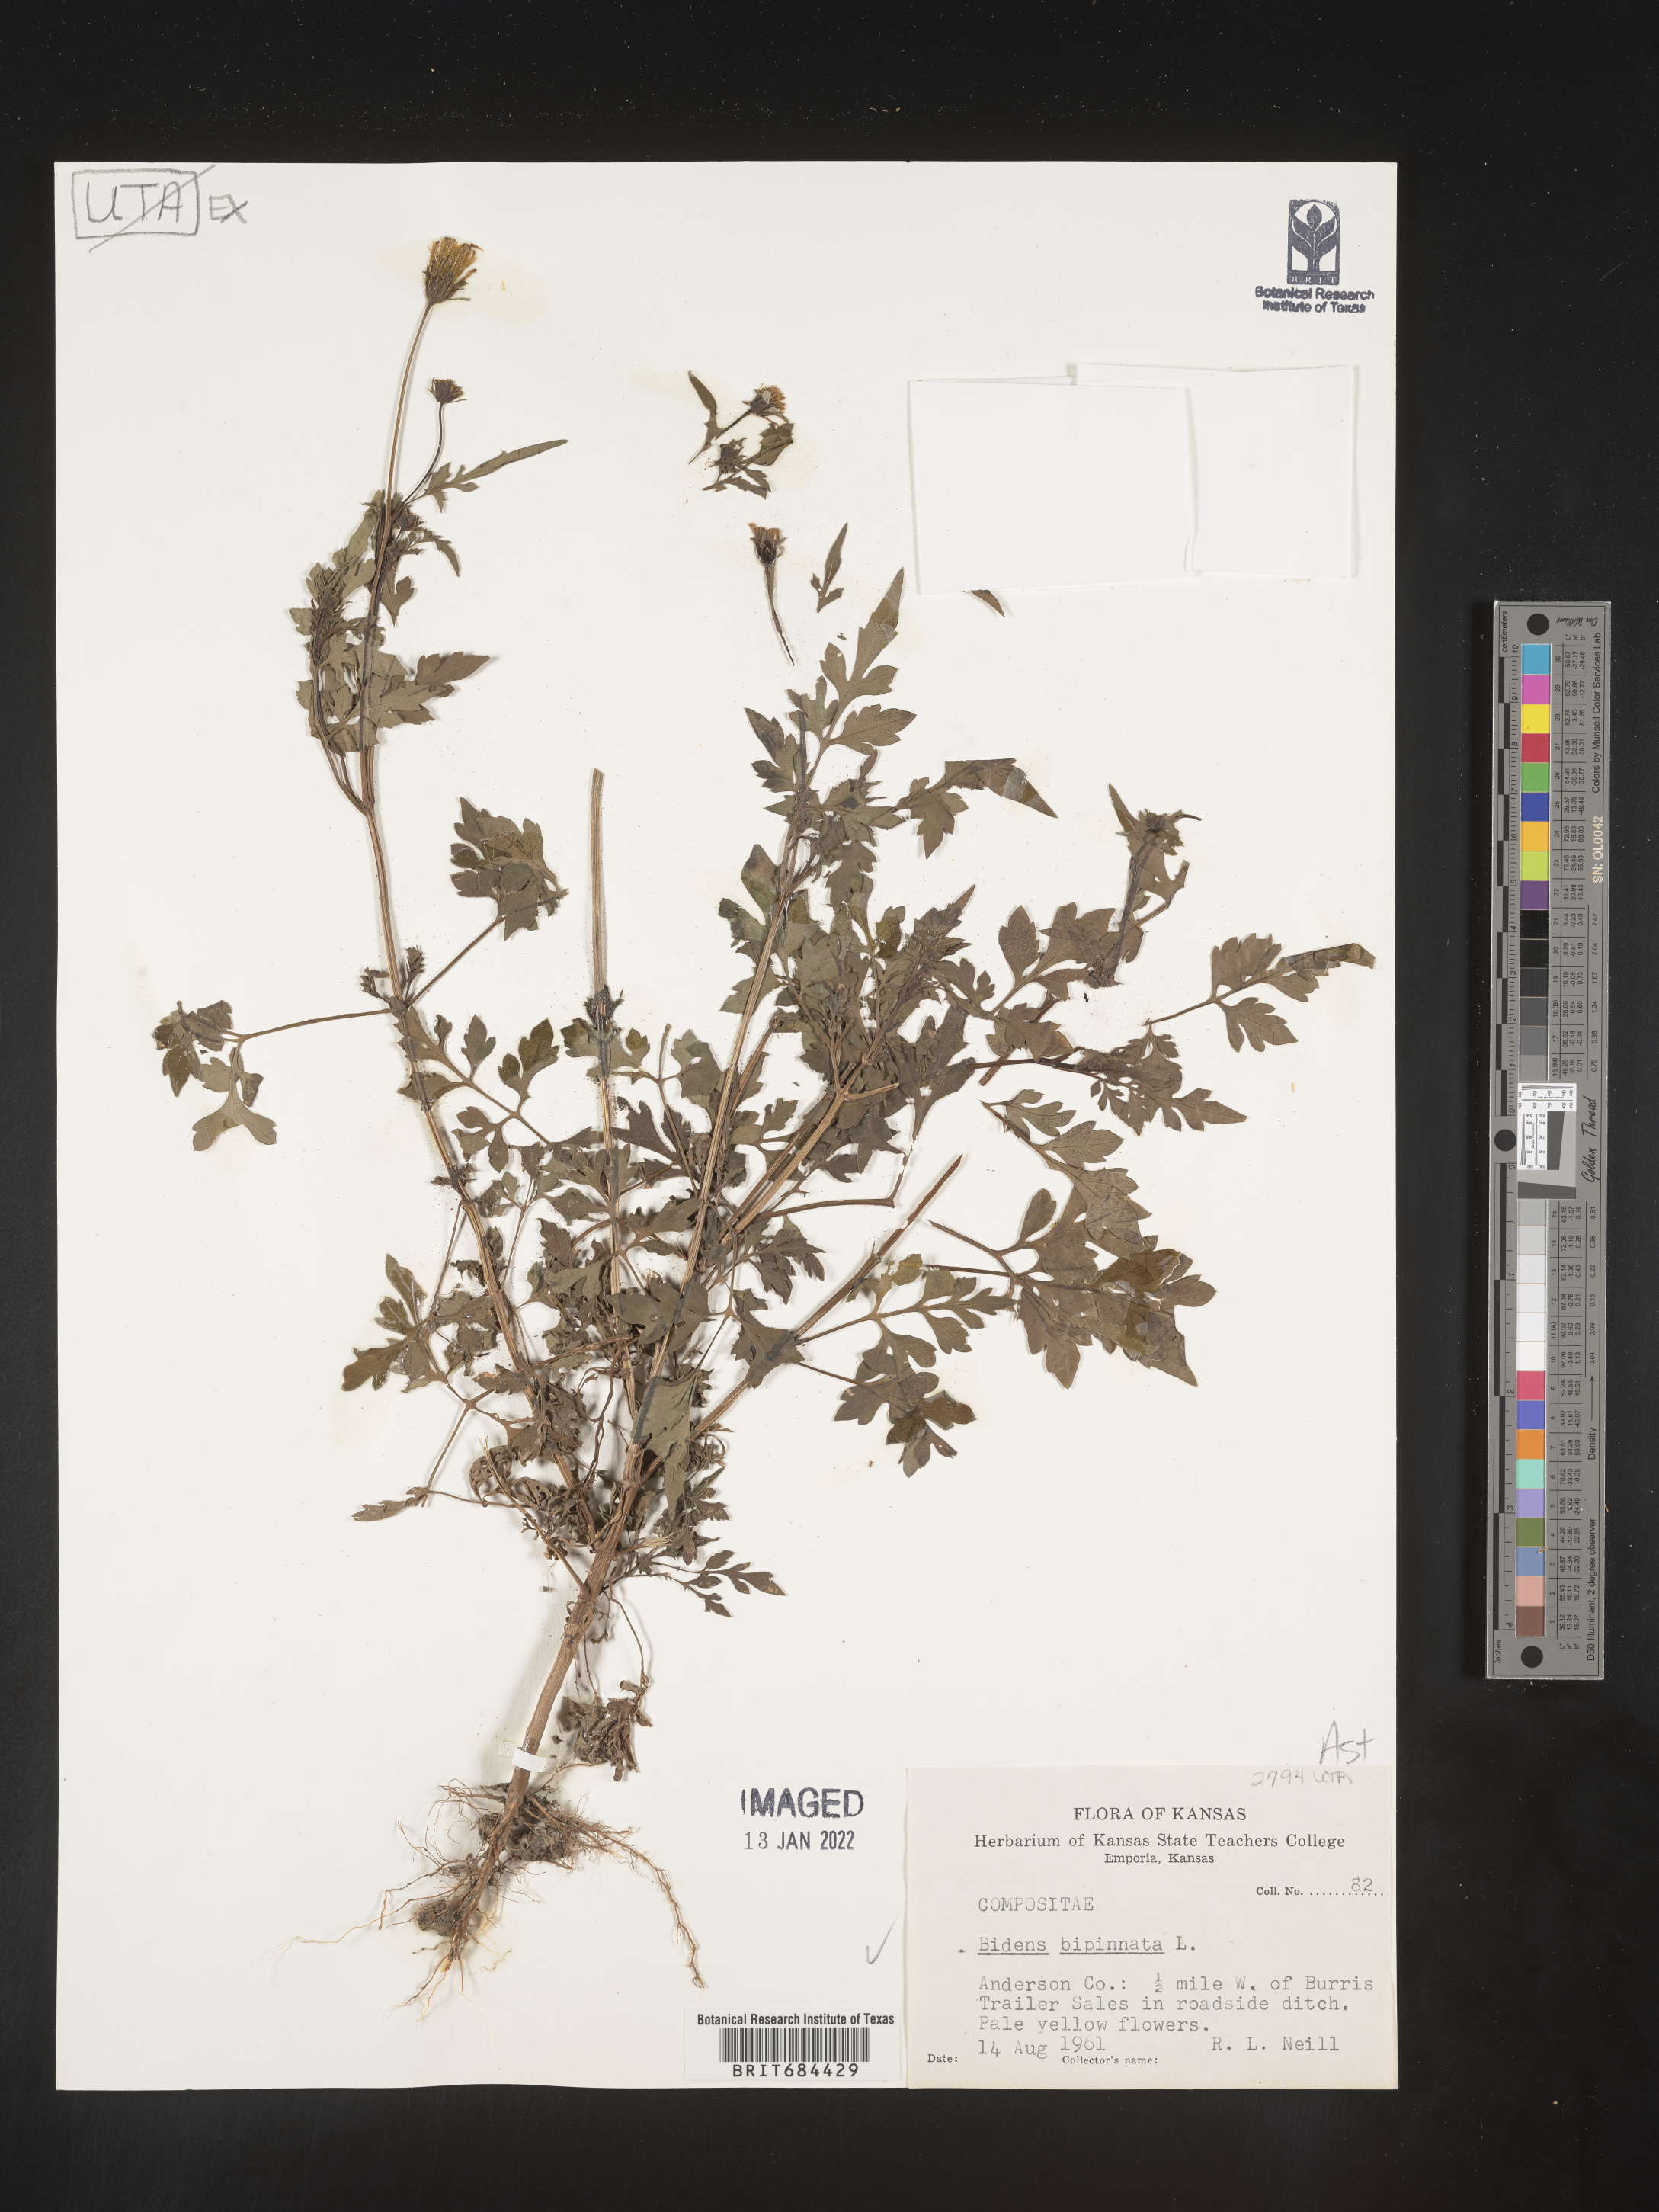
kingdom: Plantae
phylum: Tracheophyta
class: Magnoliopsida
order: Asterales
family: Asteraceae
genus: Bidens
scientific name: Bidens bipinnata
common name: Spanish-needles
